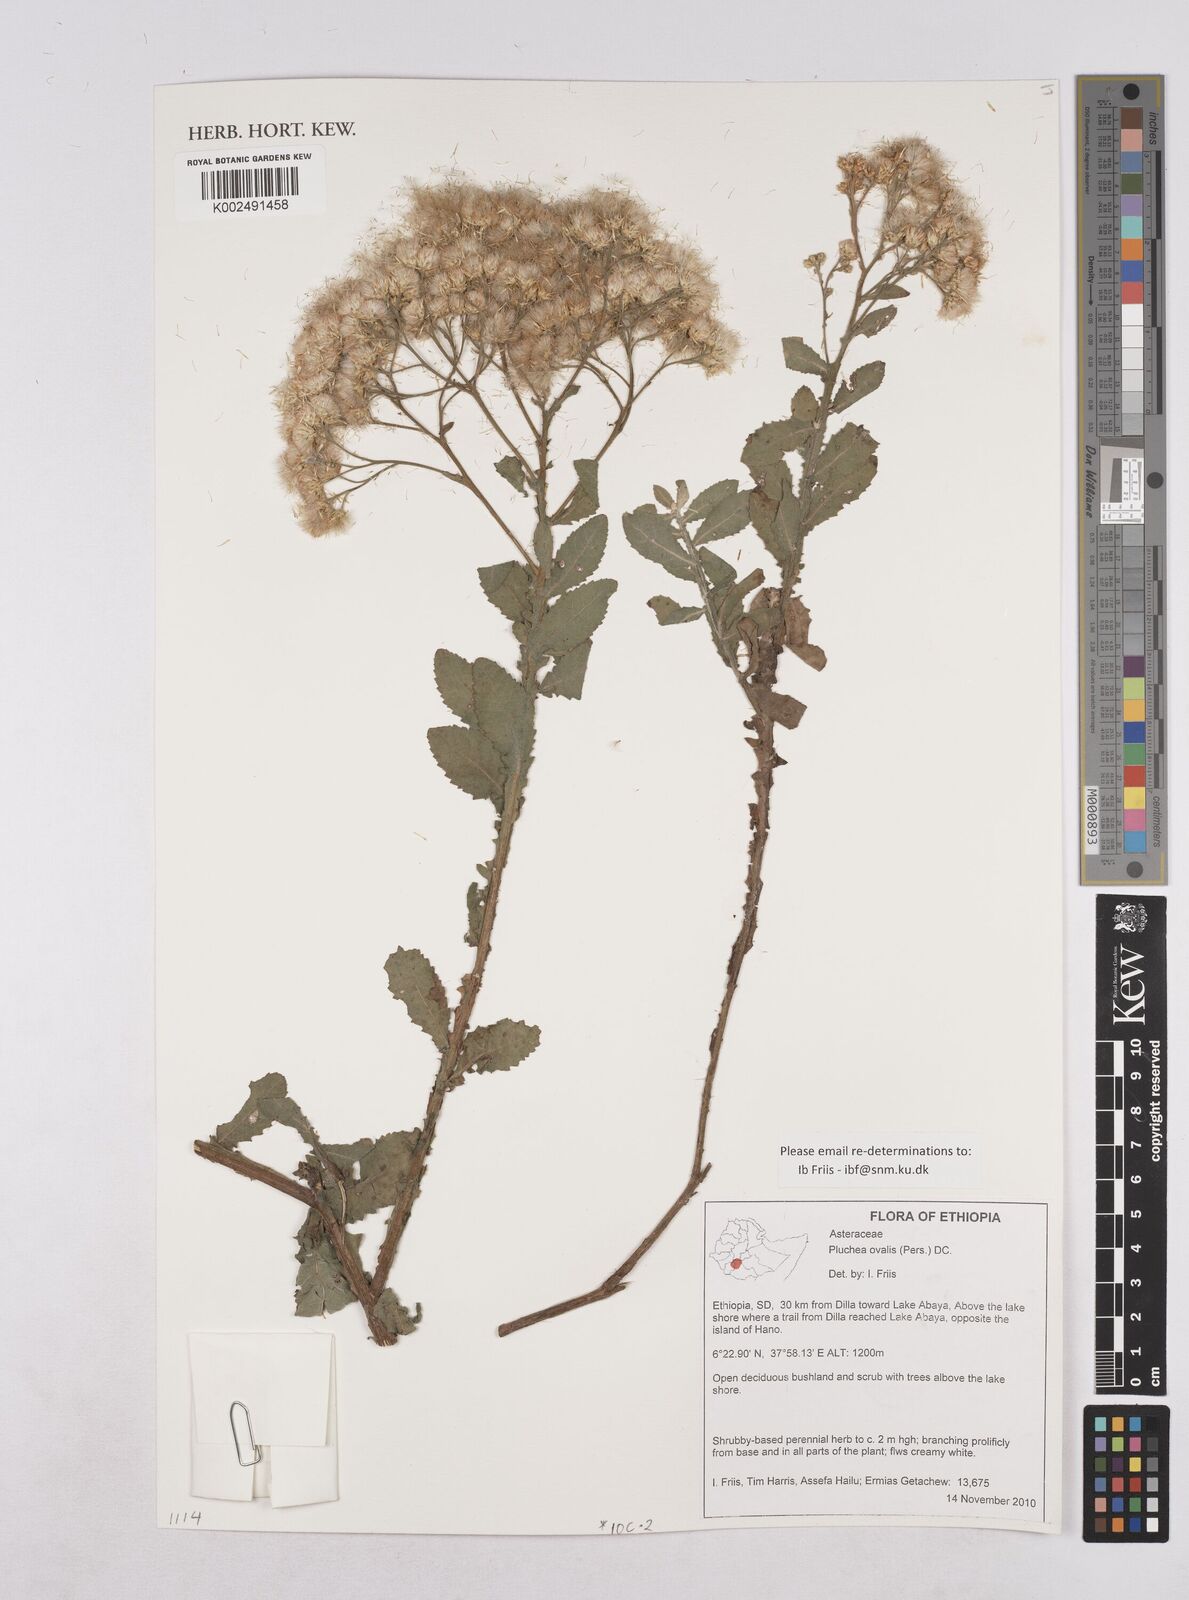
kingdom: Plantae
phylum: Tracheophyta
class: Magnoliopsida
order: Asterales
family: Asteraceae
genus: Pluchea
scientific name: Pluchea ovalis
